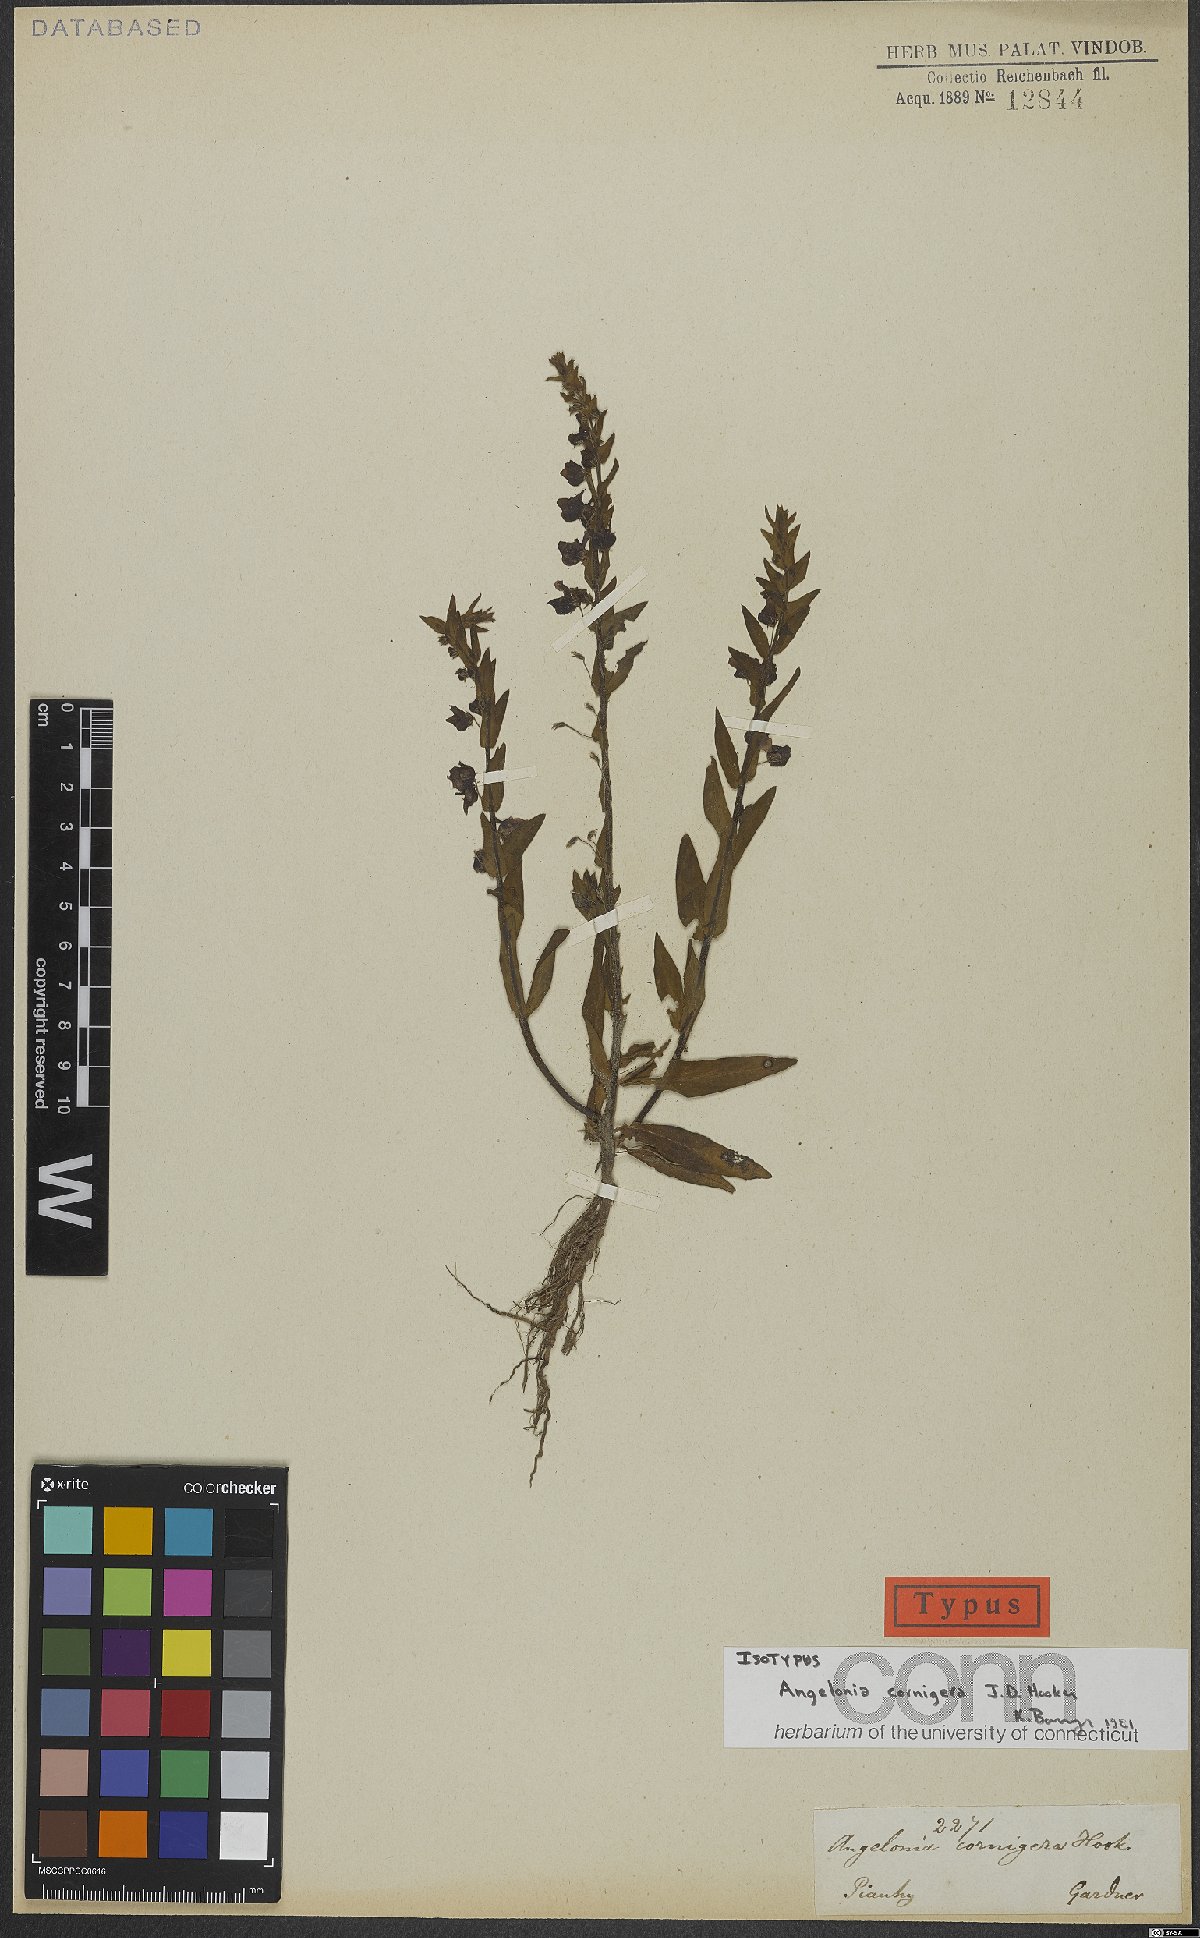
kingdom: Plantae
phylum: Tracheophyta
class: Magnoliopsida
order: Lamiales
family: Plantaginaceae
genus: Angelonia
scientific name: Angelonia cornigera
